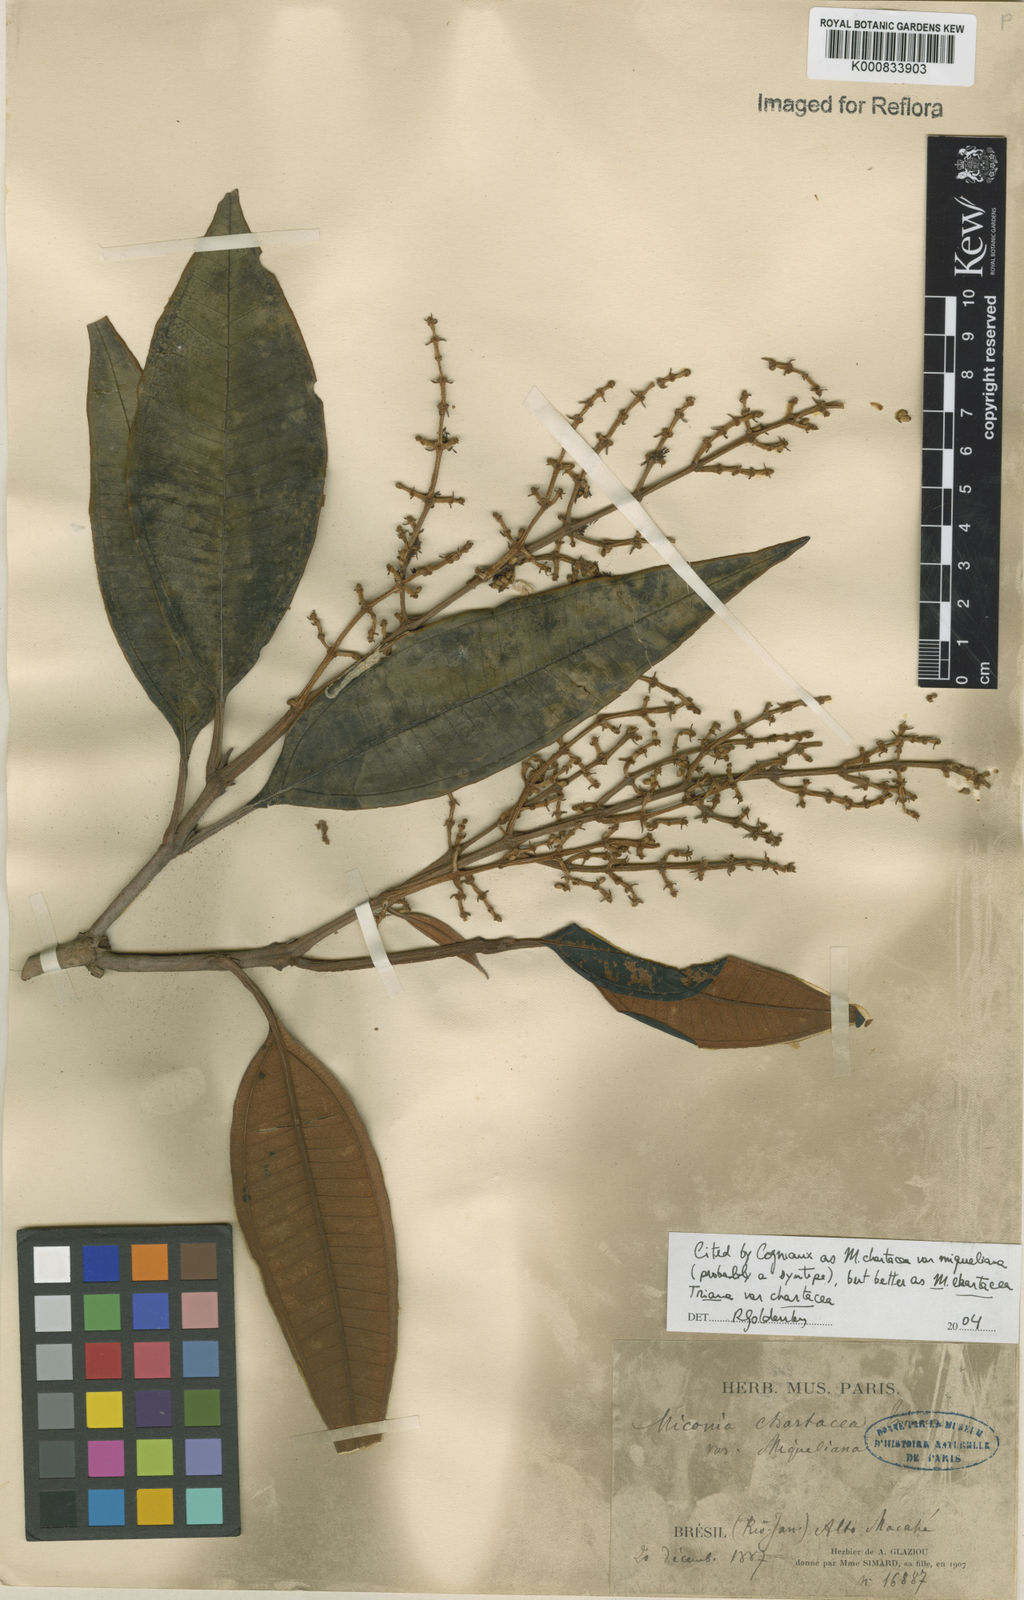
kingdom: Plantae
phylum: Tracheophyta
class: Magnoliopsida
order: Myrtales
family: Melastomataceae
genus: Miconia
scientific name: Miconia chartacea
